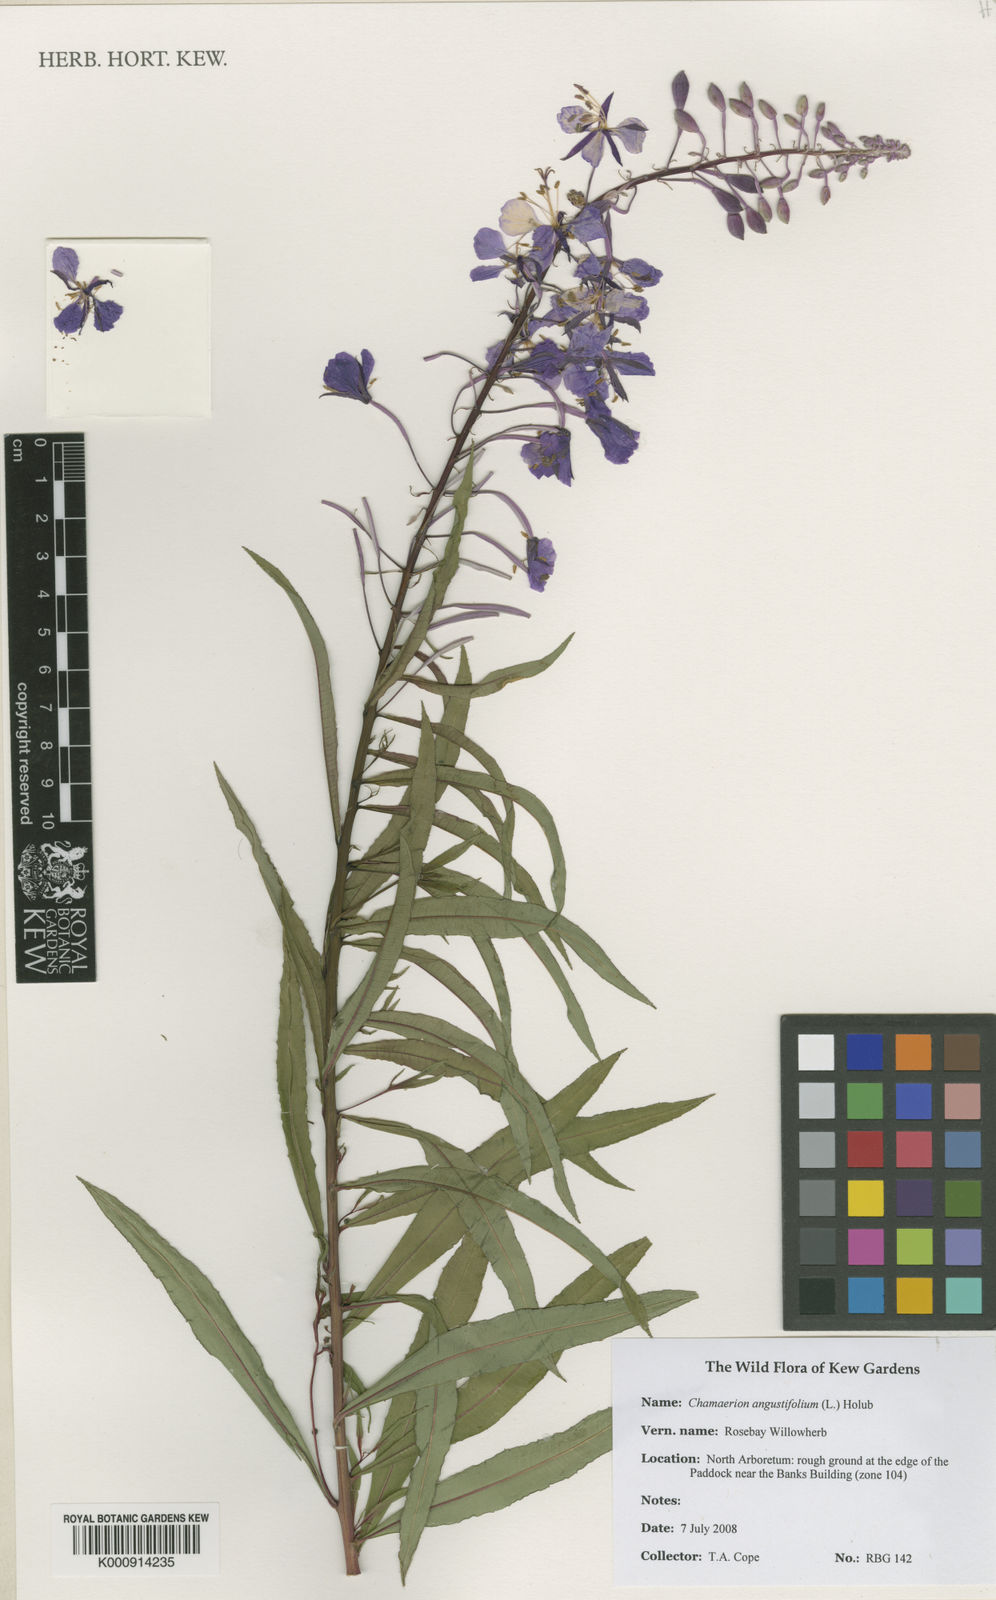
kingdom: Plantae
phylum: Tracheophyta
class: Magnoliopsida
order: Myrtales
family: Onagraceae
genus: Chamaenerion
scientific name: Chamaenerion angustifolium
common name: Fireweed
